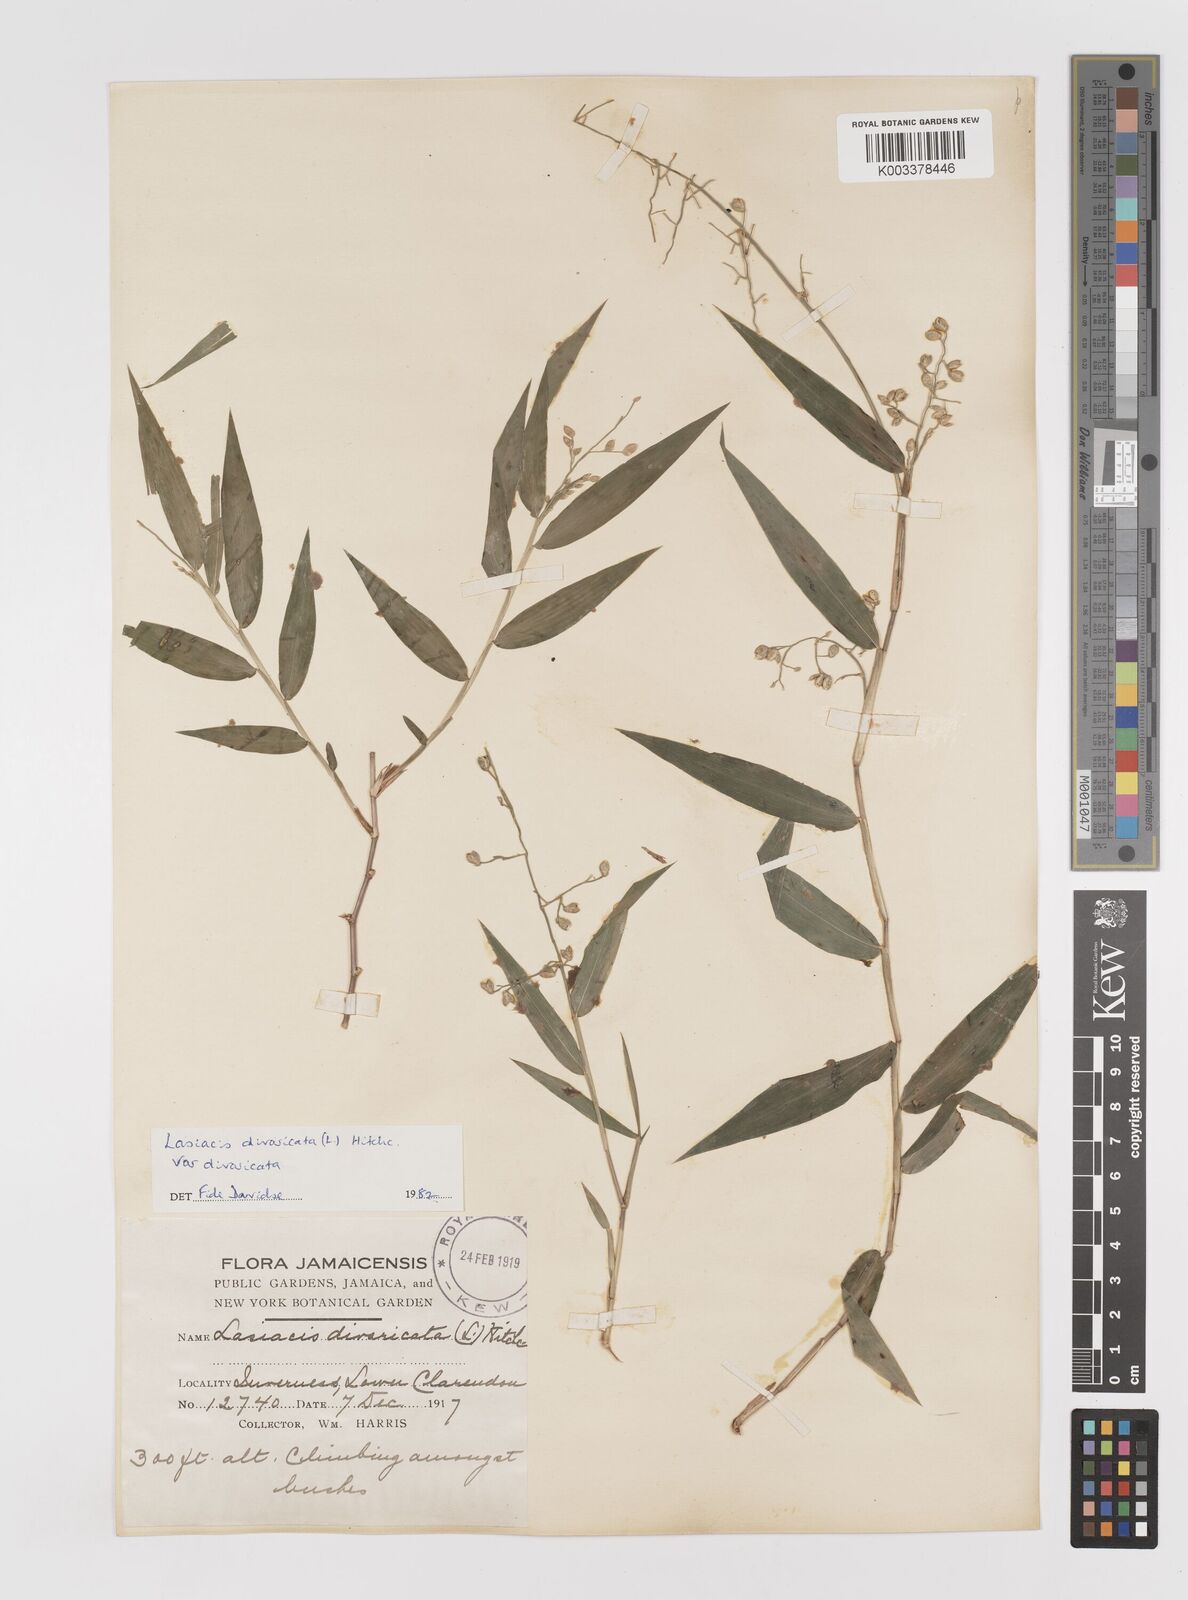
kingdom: Plantae
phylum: Tracheophyta
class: Liliopsida
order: Poales
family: Poaceae
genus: Lasiacis
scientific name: Lasiacis divaricata
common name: Smallcane
